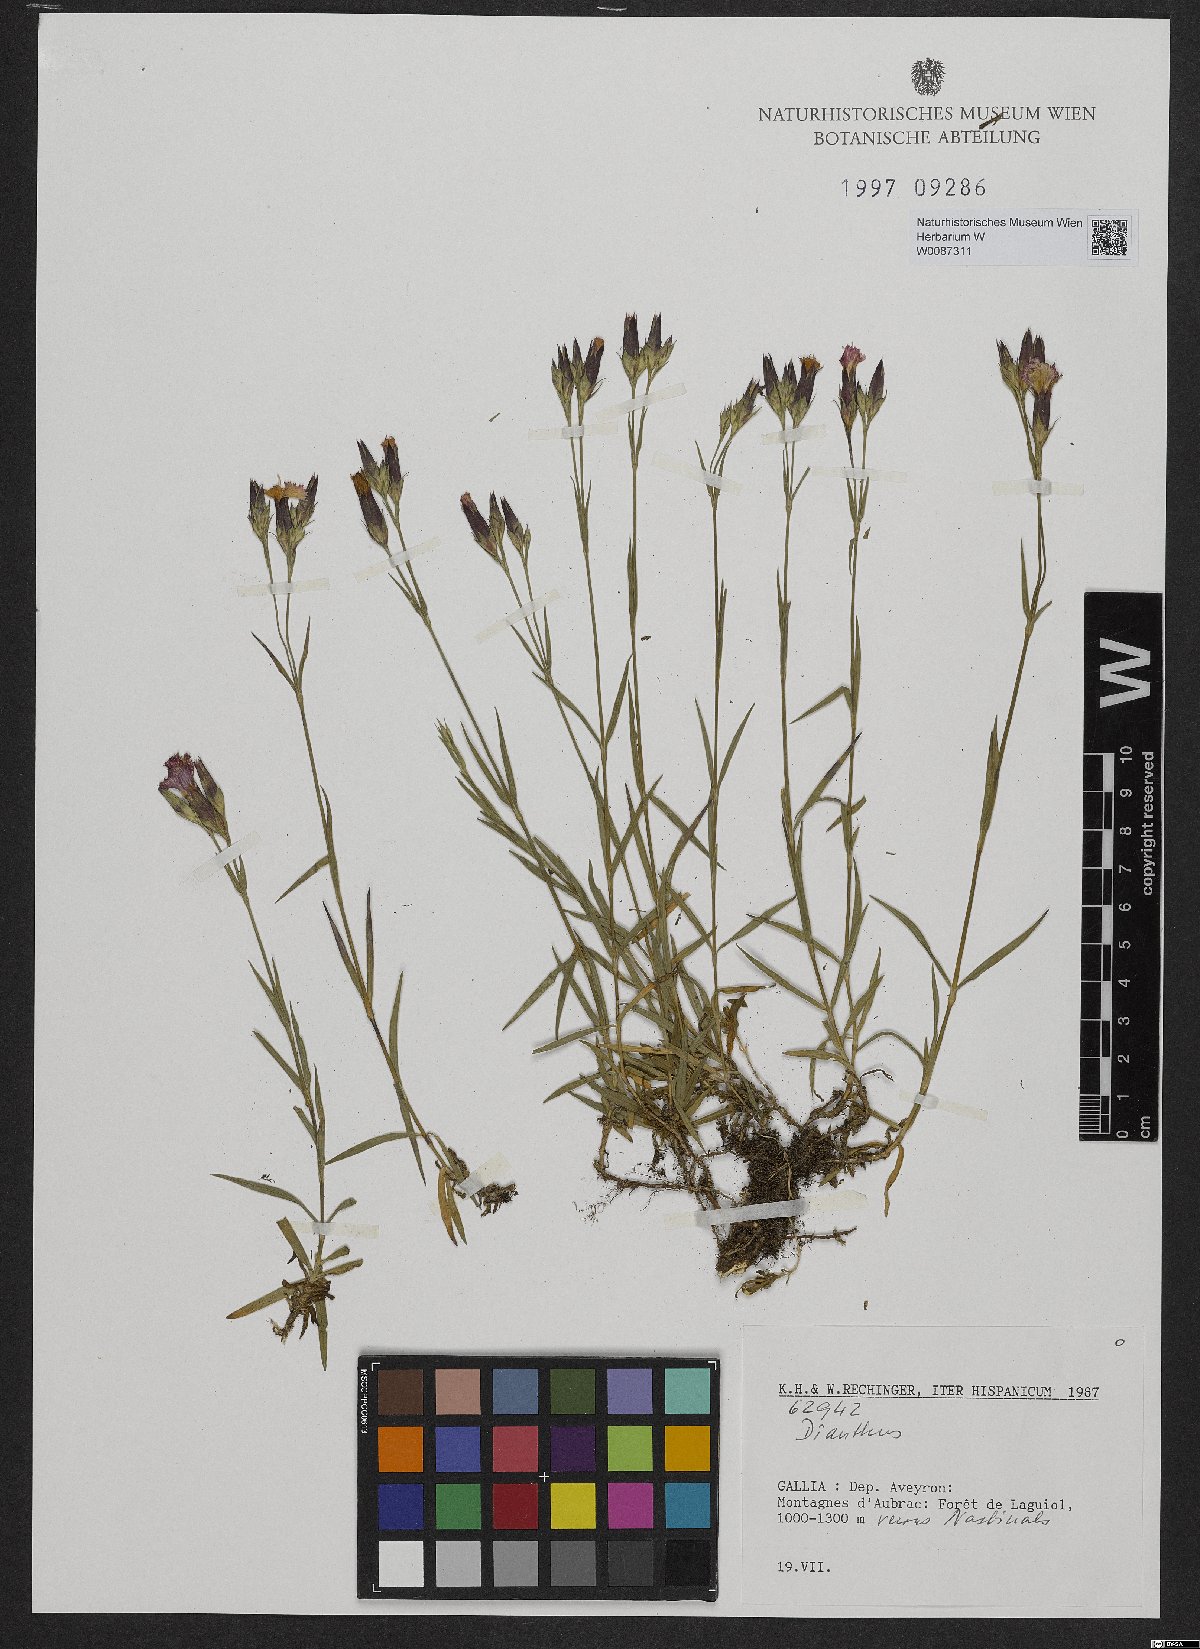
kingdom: Plantae
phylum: Tracheophyta
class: Magnoliopsida
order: Caryophyllales
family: Caryophyllaceae
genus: Dianthus
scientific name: Dianthus
